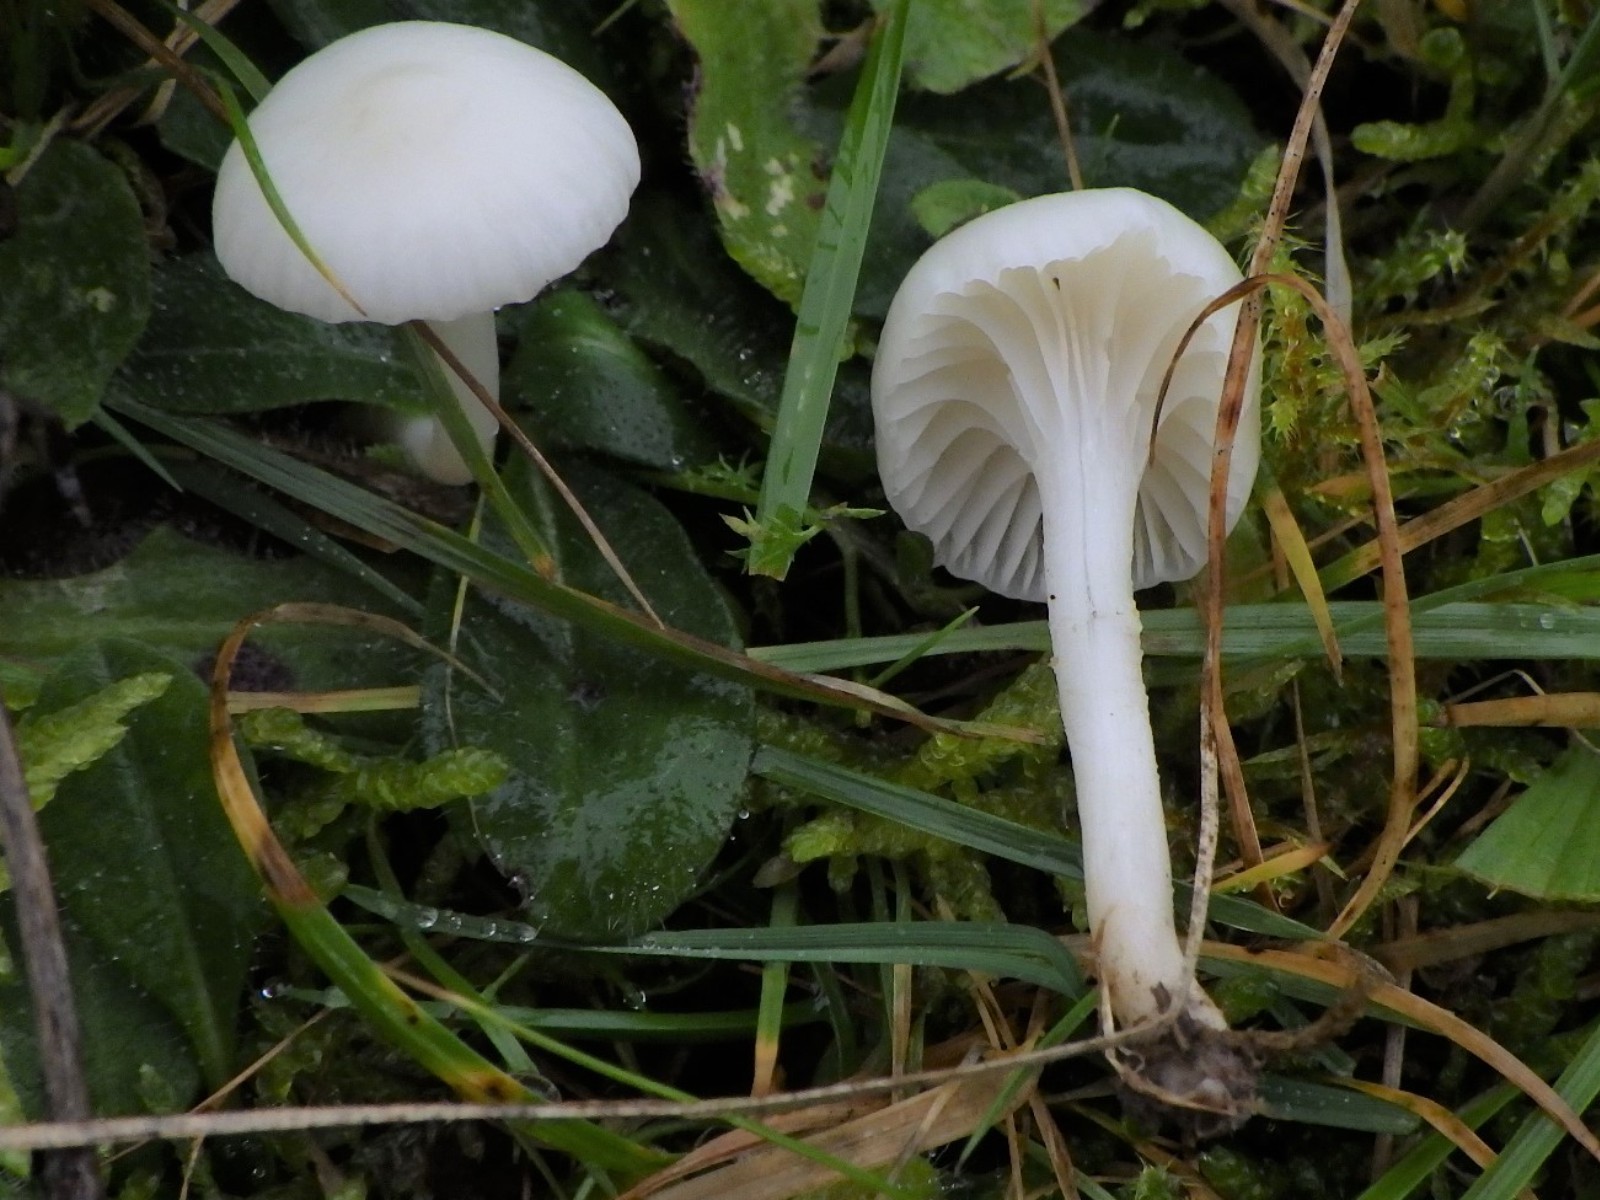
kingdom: Fungi
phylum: Basidiomycota
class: Agaricomycetes
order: Agaricales
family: Hygrophoraceae
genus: Cuphophyllus
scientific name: Cuphophyllus virgineus
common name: snehvid vokshat
